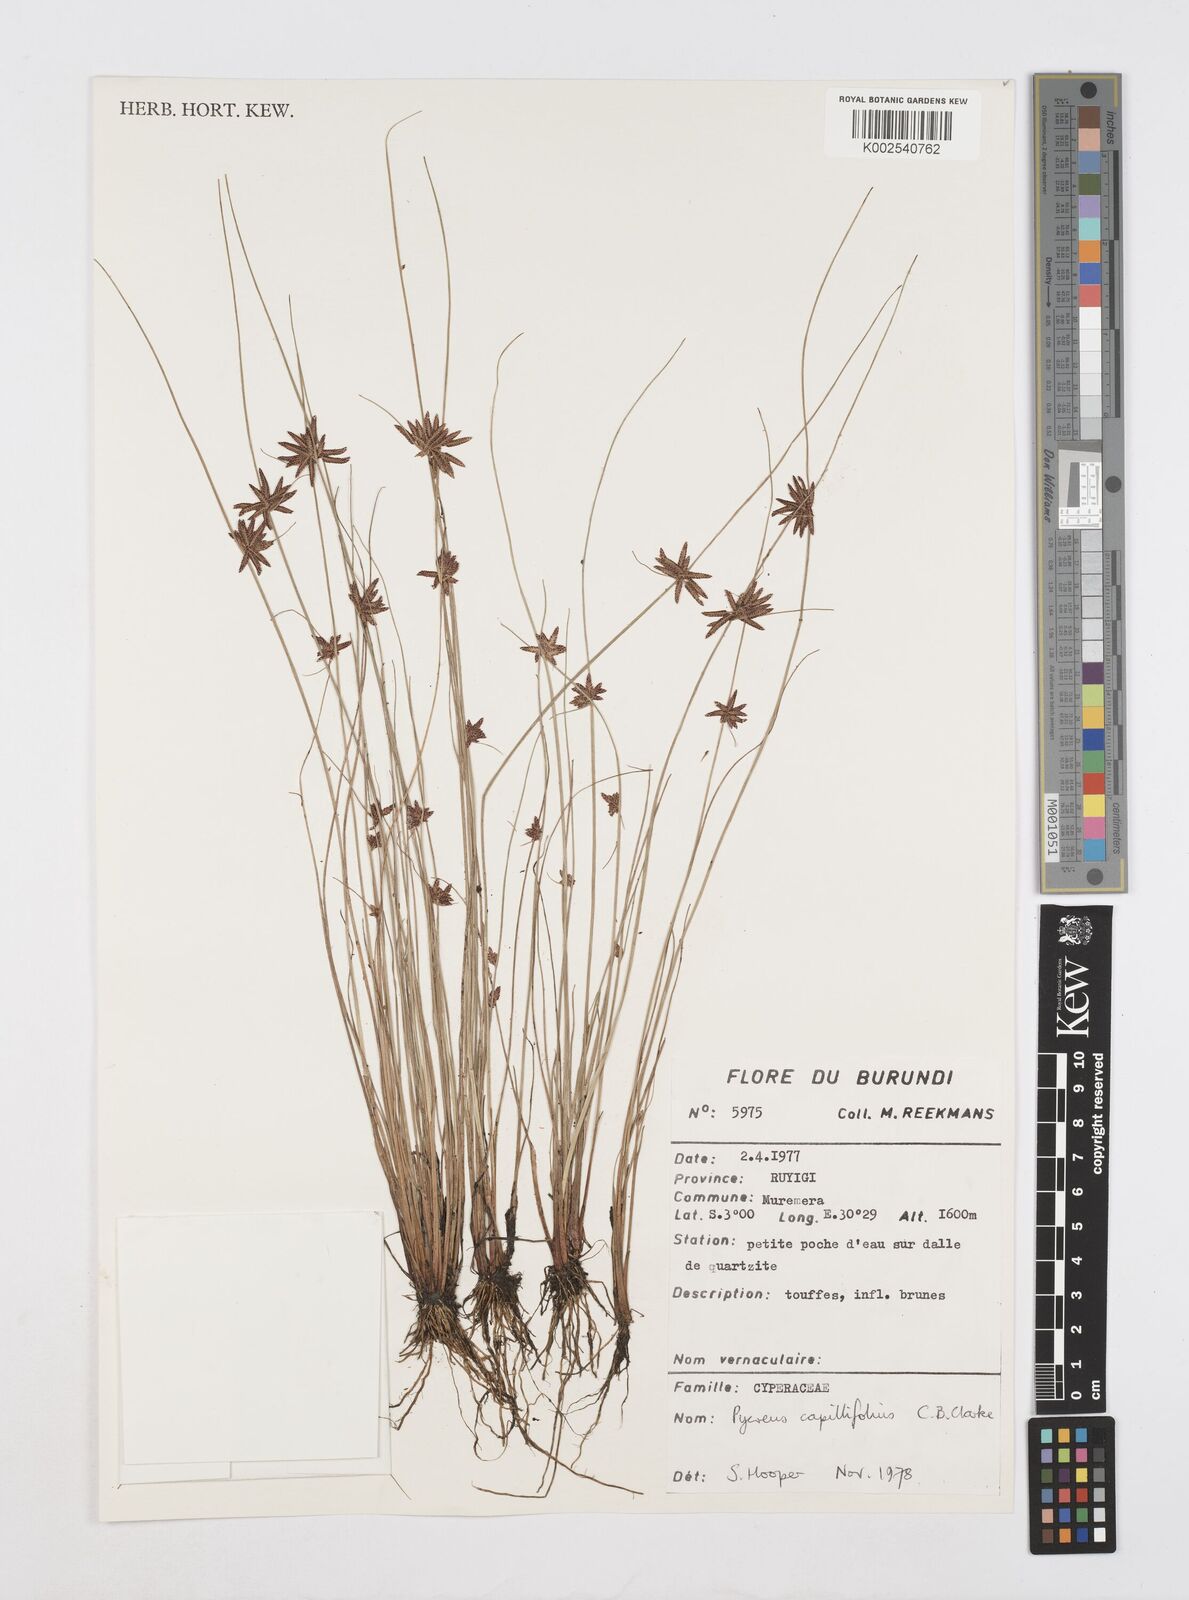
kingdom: Plantae
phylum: Tracheophyta
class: Liliopsida
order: Poales
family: Cyperaceae
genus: Cyperus
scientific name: Cyperus capillifolius
